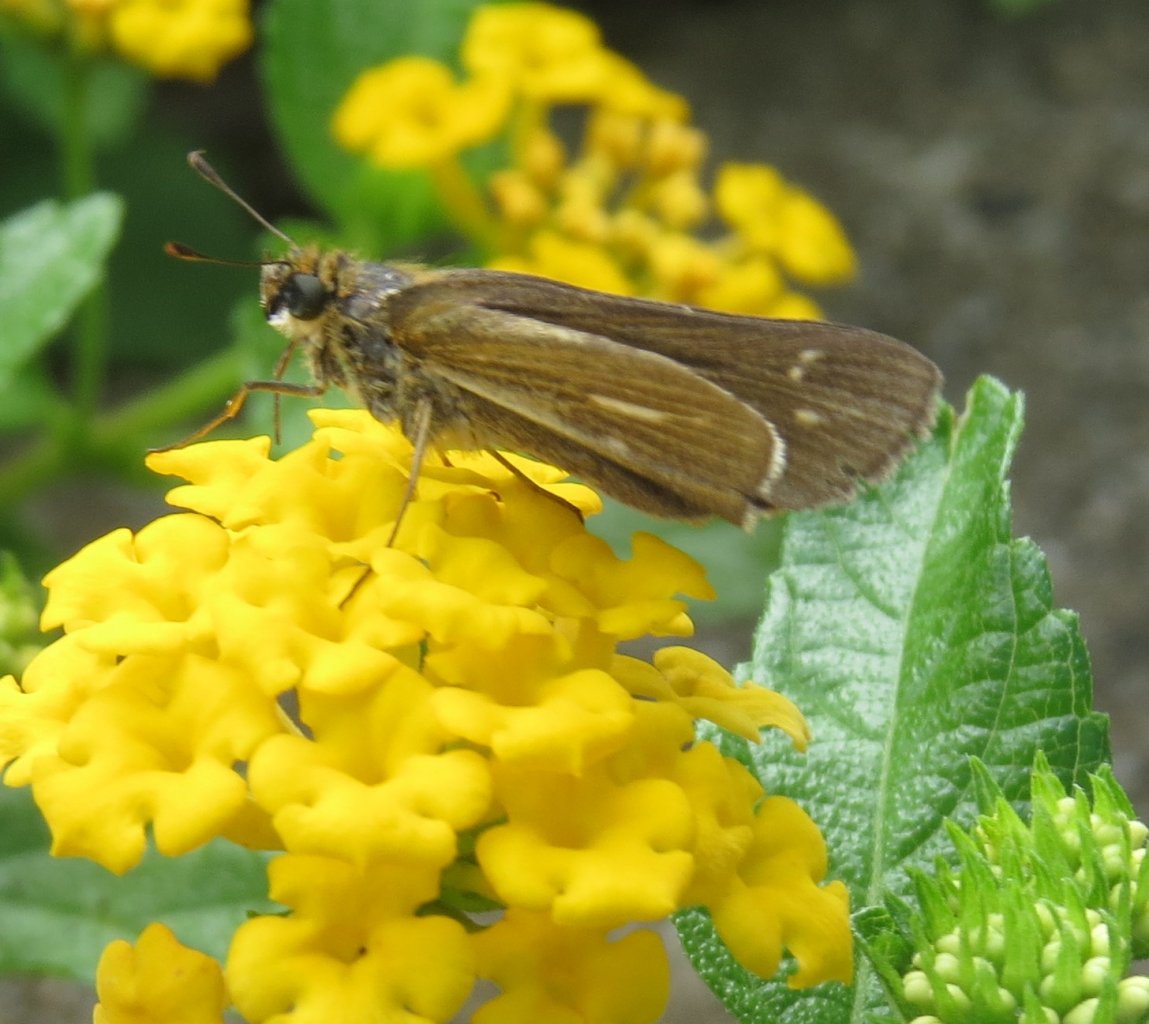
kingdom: Animalia
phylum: Arthropoda
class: Insecta
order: Lepidoptera
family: Hesperiidae
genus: Panoquina
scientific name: Panoquina panoquin
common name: Salt Marsh Skipper
